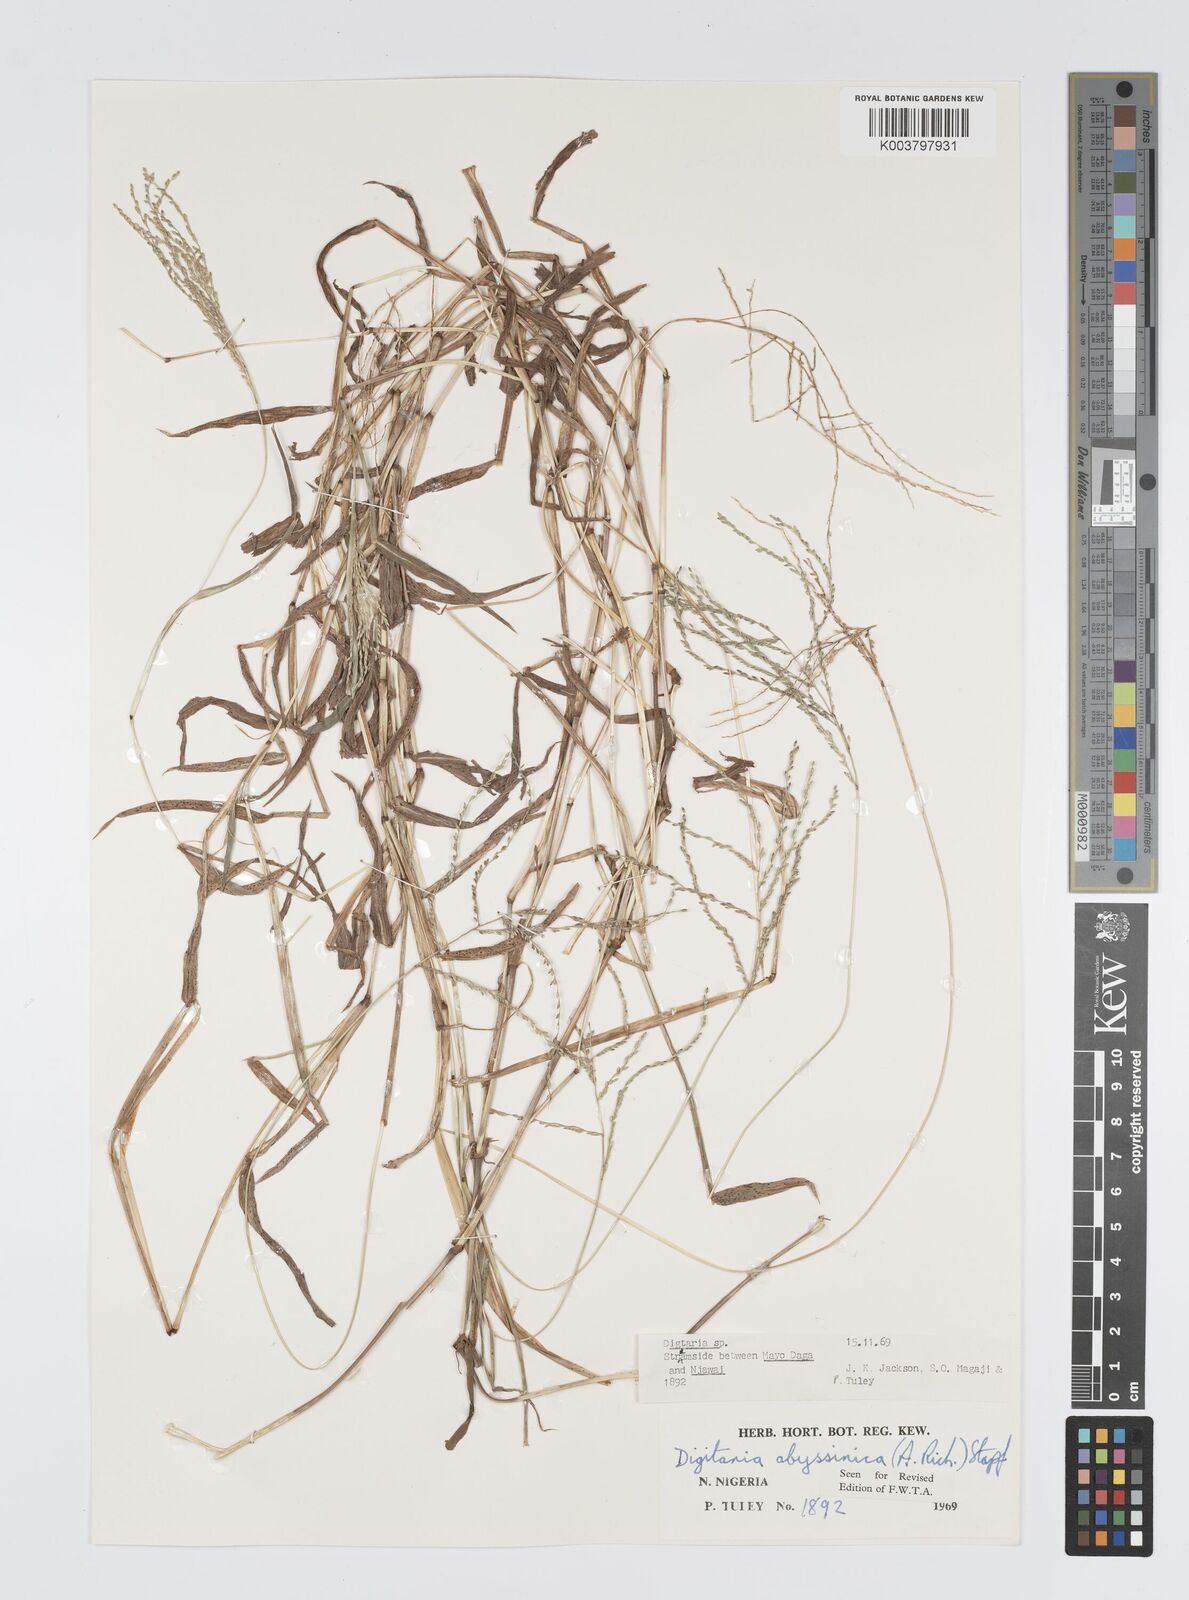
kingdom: Plantae
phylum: Tracheophyta
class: Liliopsida
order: Poales
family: Poaceae
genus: Digitaria
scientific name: Digitaria abyssinica
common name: African couchgrass
